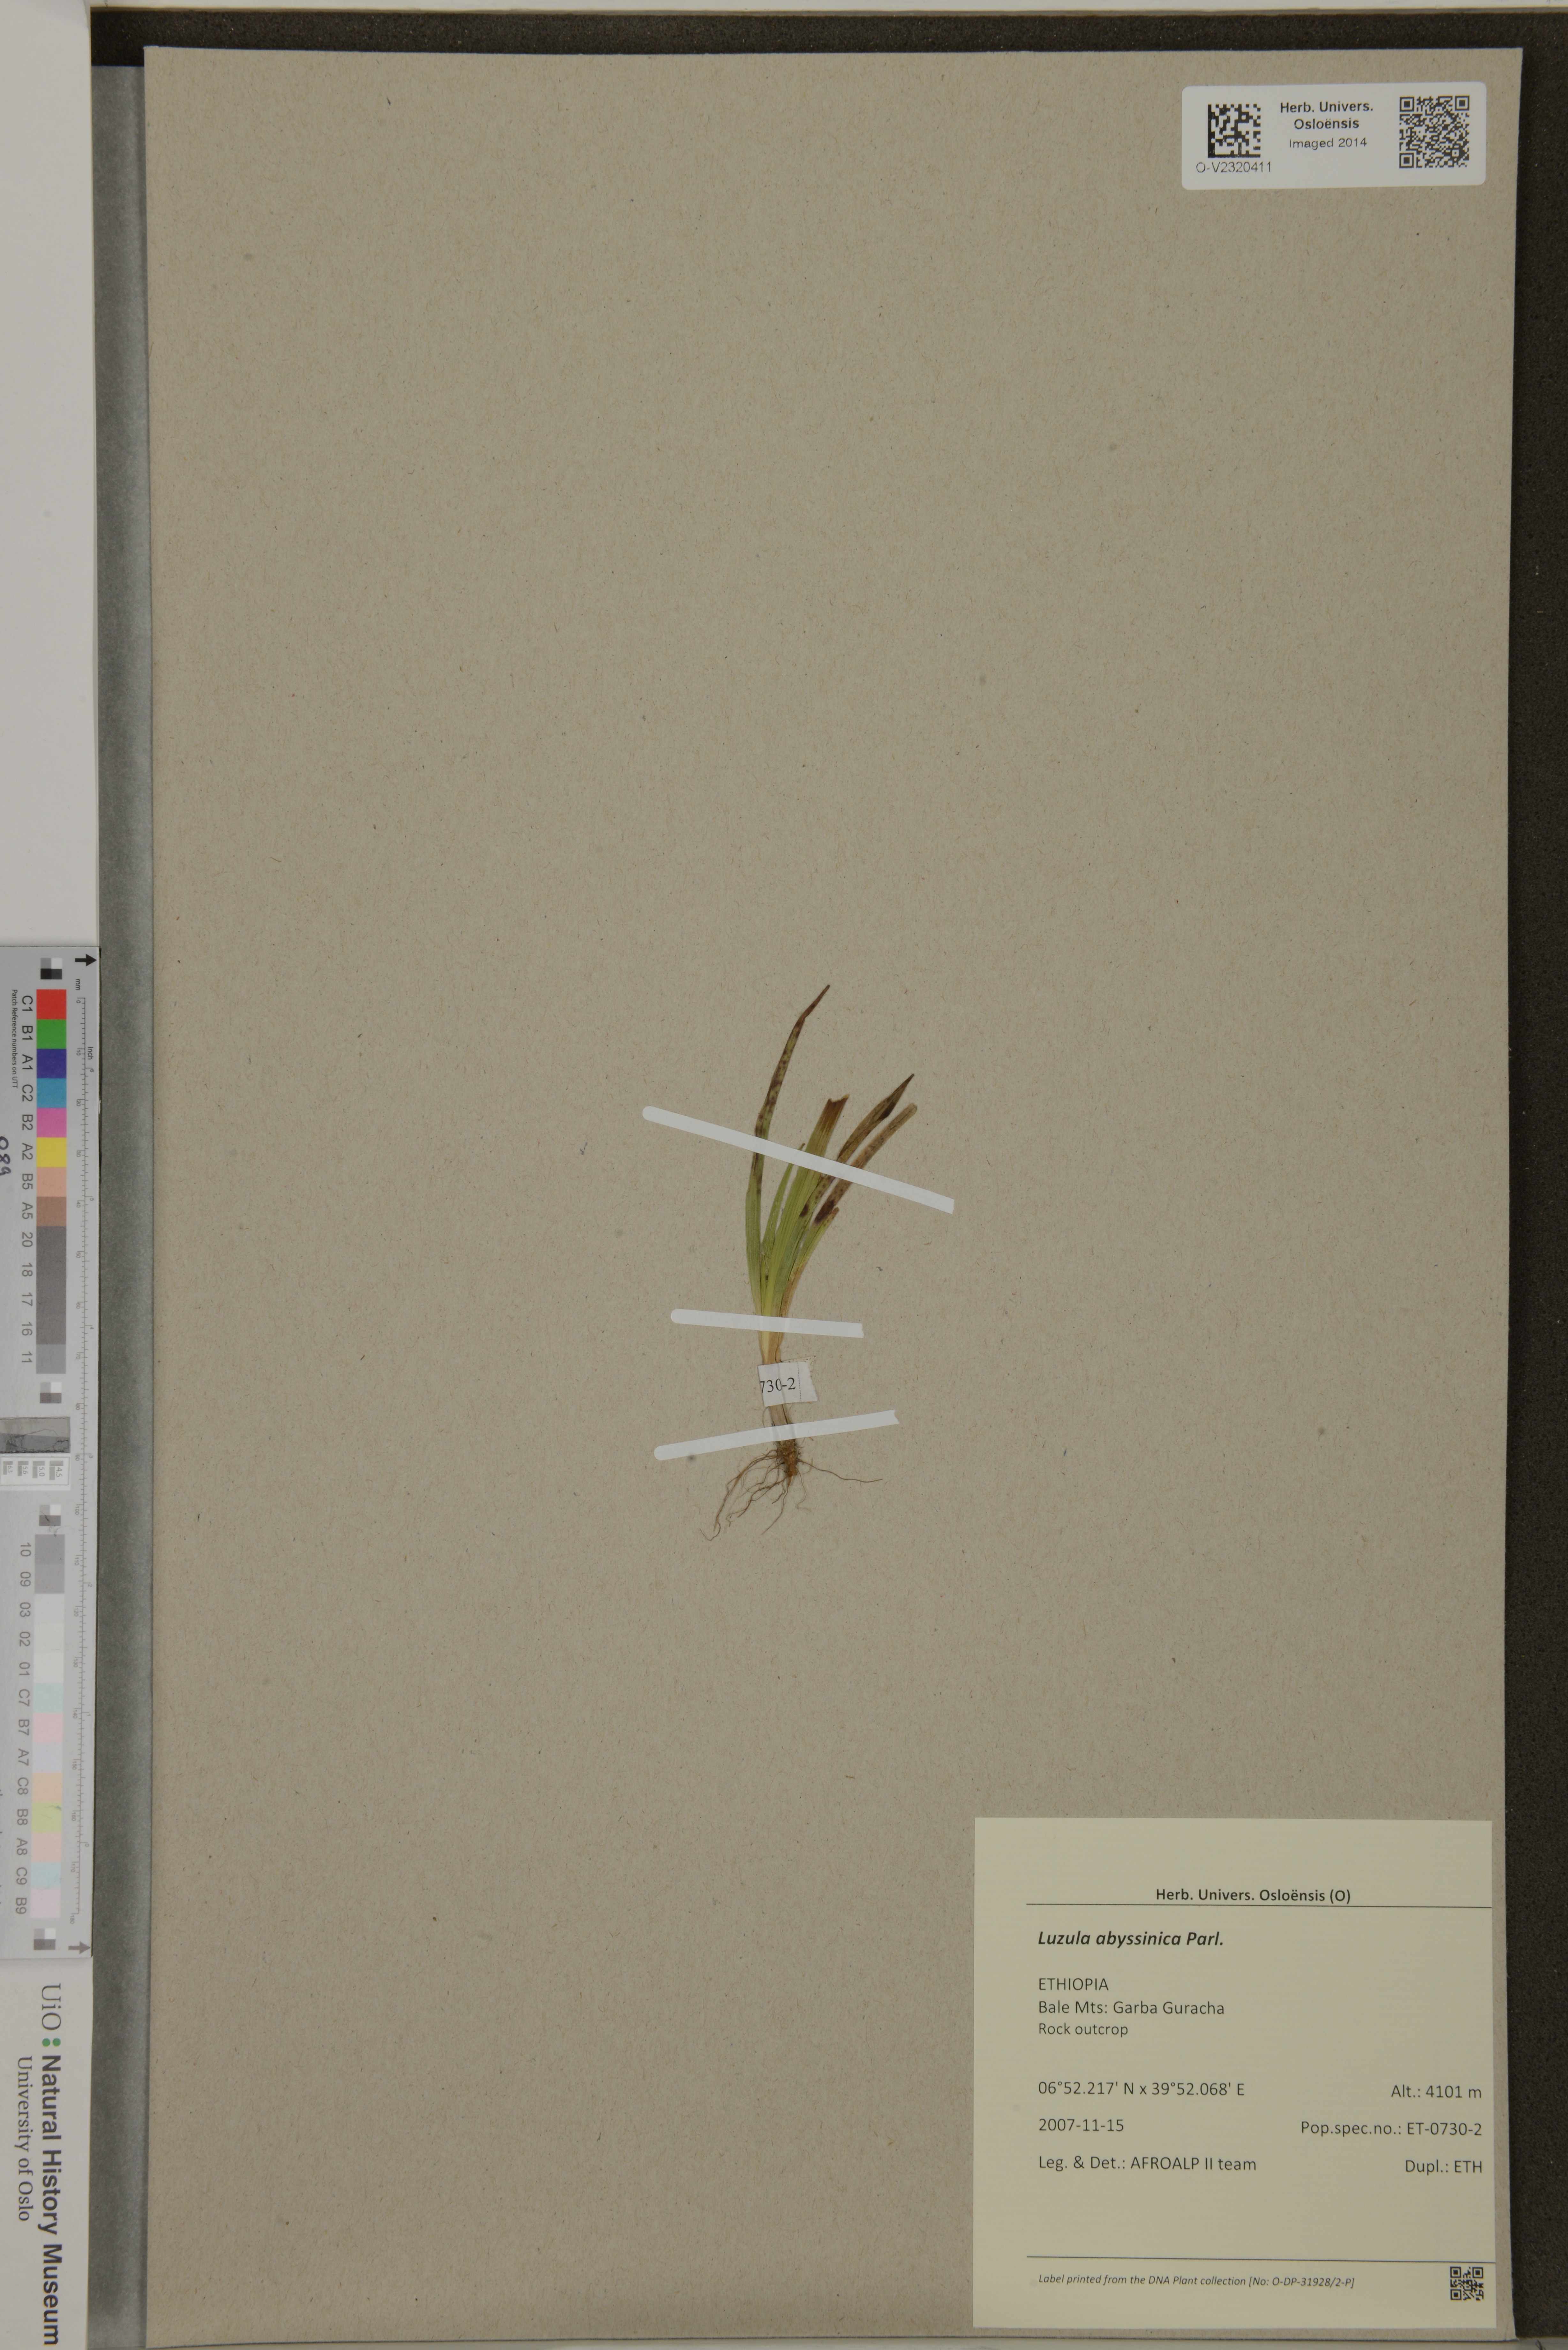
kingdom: Plantae
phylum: Tracheophyta
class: Liliopsida
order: Poales
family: Juncaceae
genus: Luzula
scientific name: Luzula abyssinica
